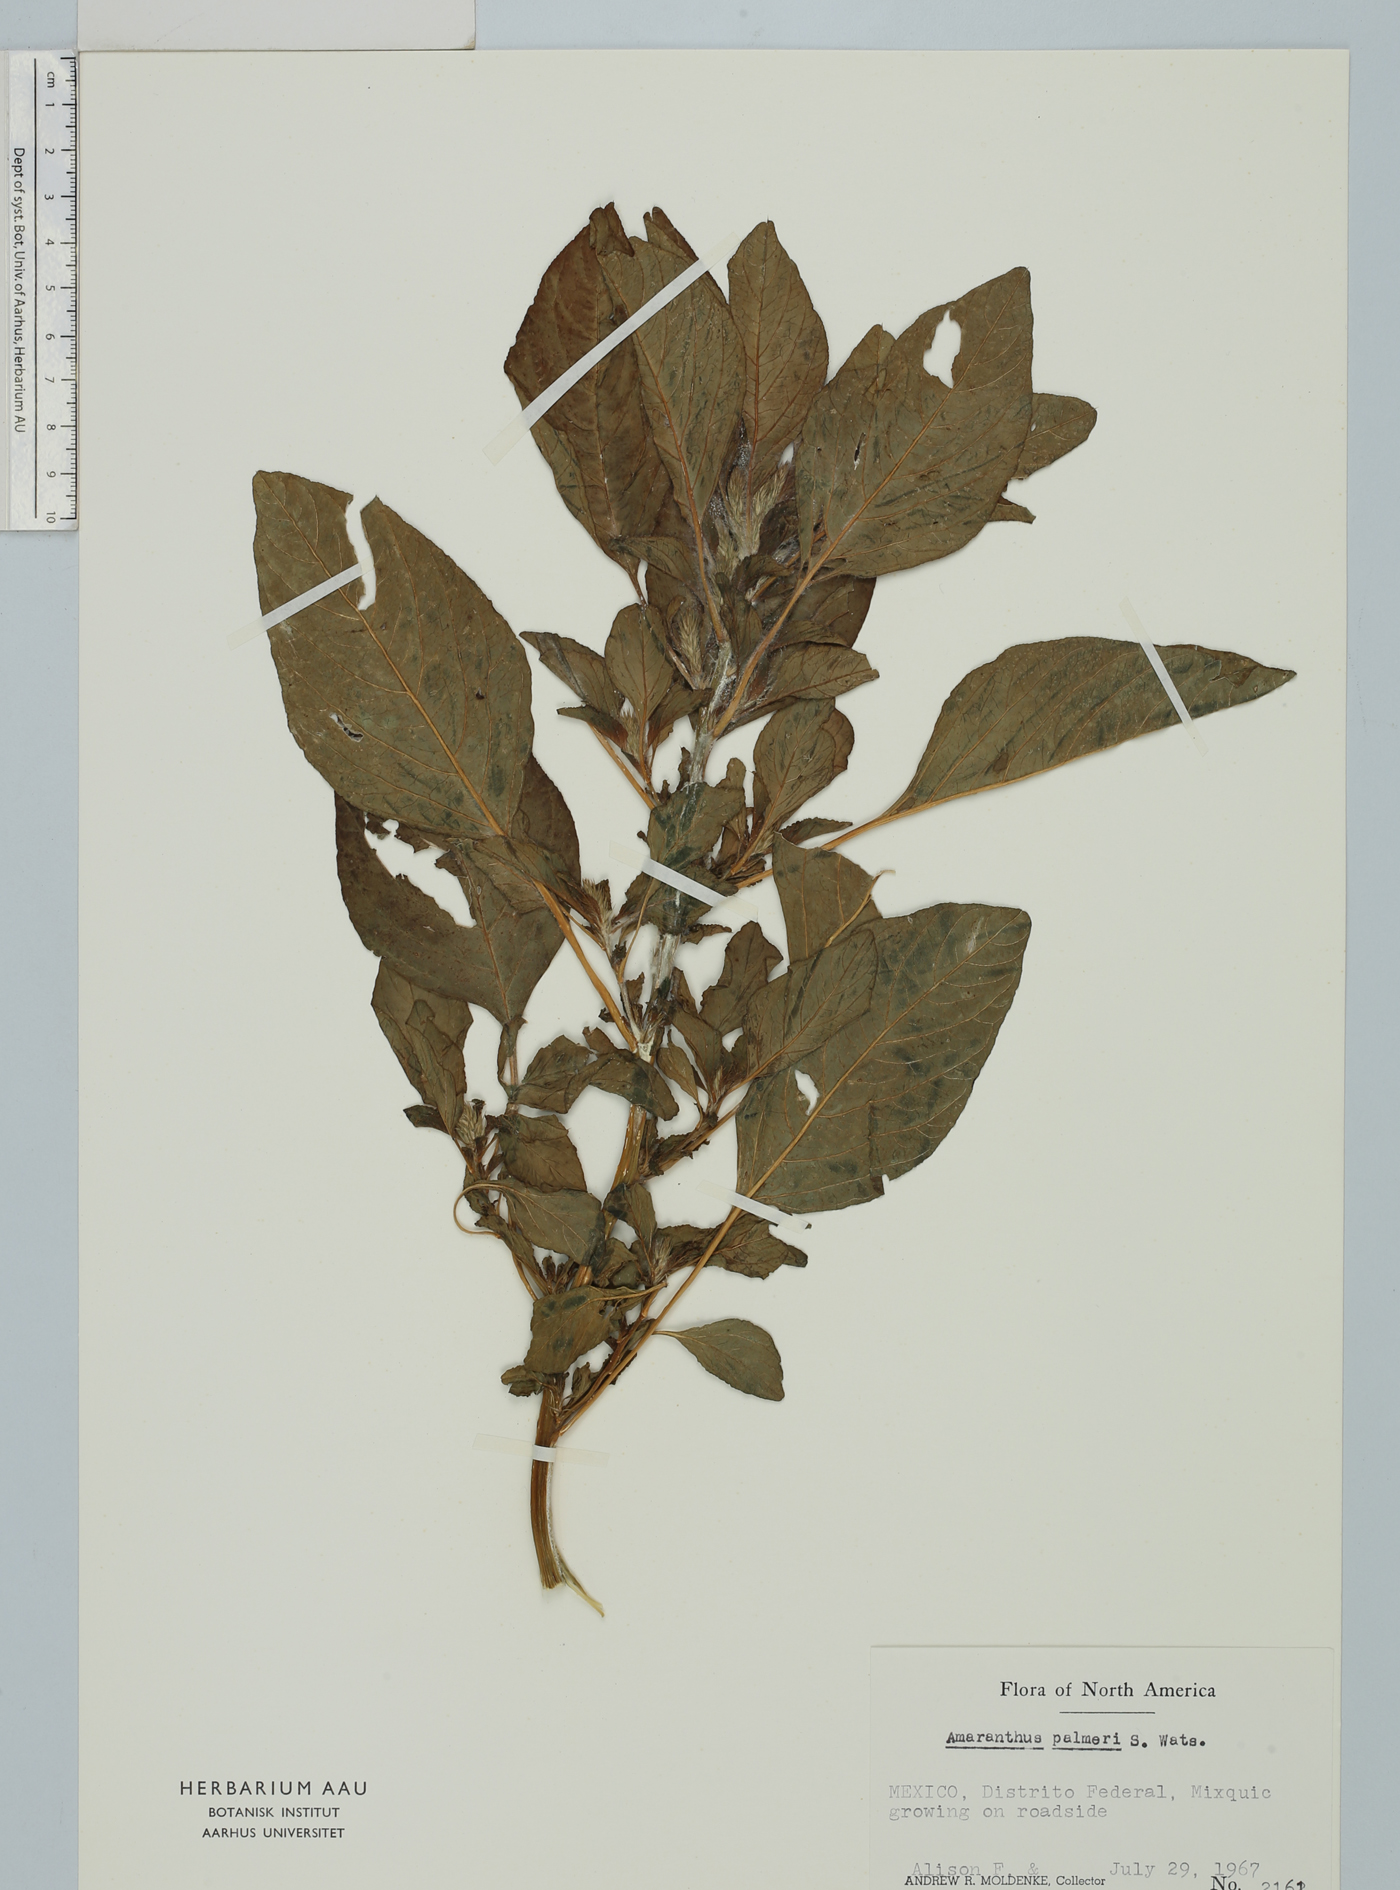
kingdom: Plantae
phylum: Tracheophyta
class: Magnoliopsida
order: Caryophyllales
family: Amaranthaceae
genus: Amaranthus
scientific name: Amaranthus palmeri
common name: Dioecious amaranth
